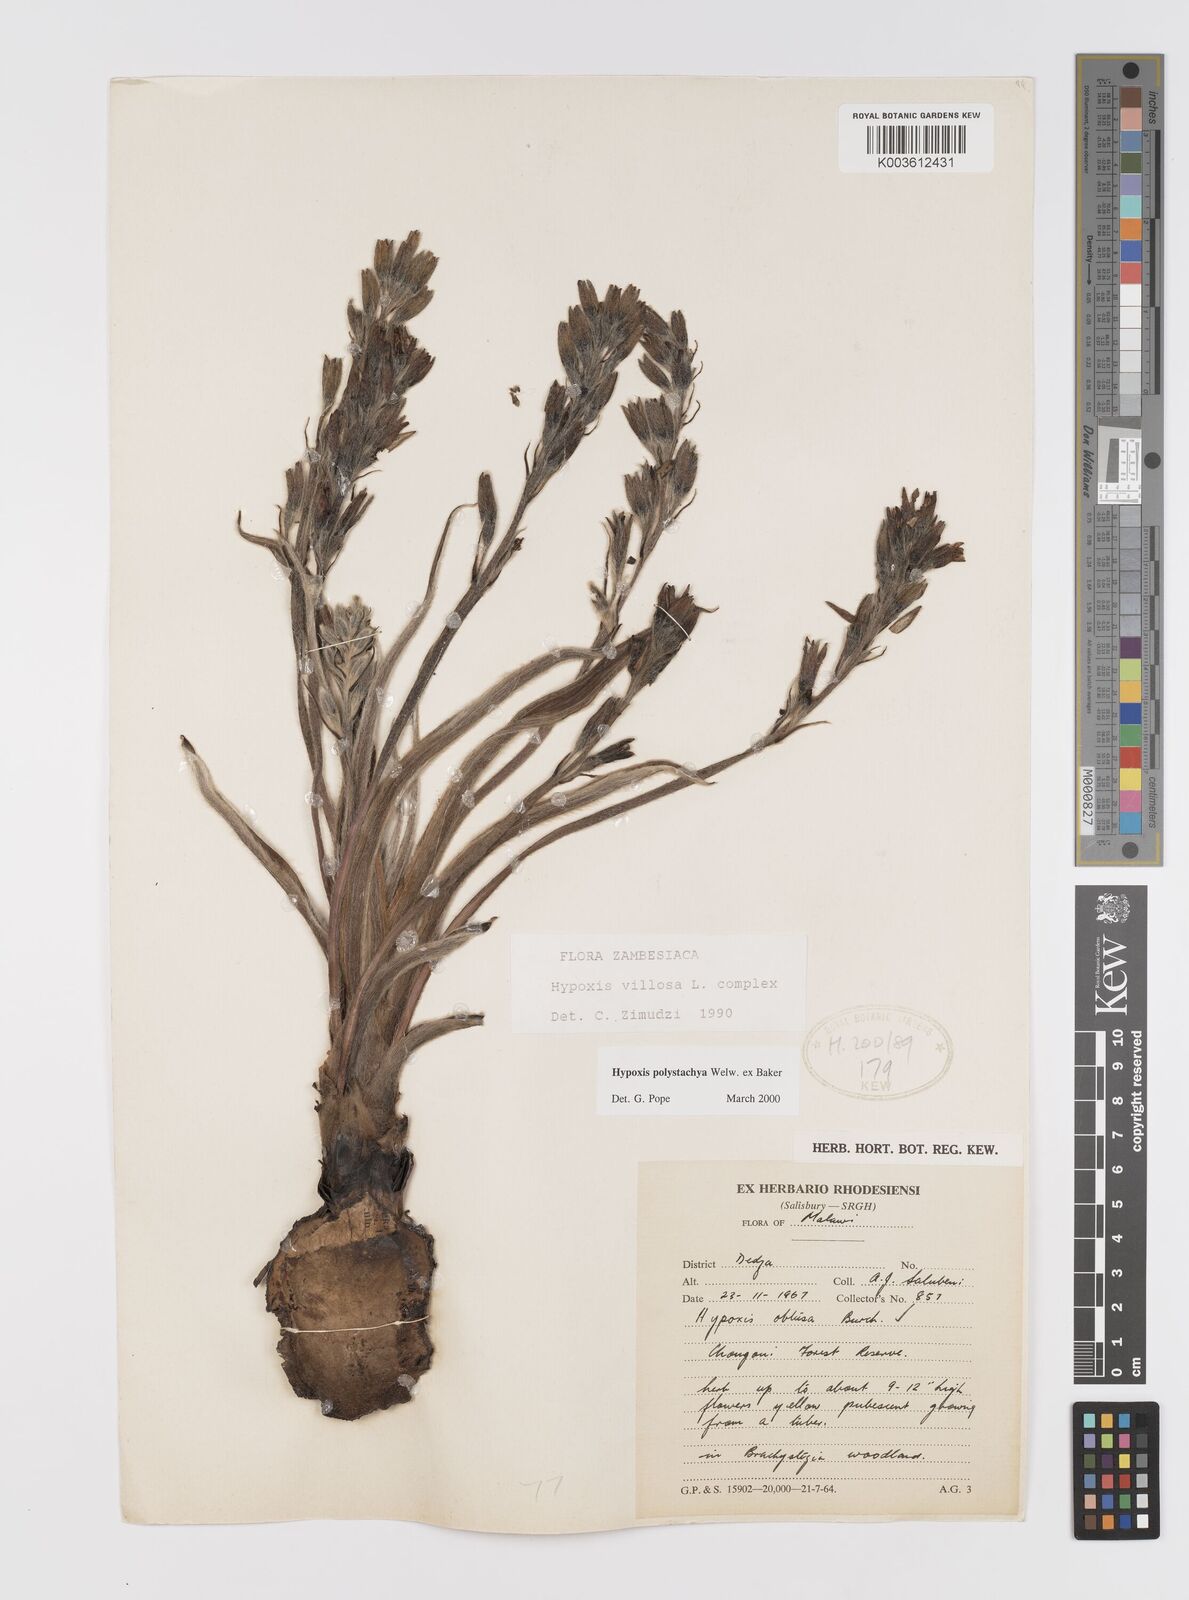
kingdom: Plantae
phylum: Tracheophyta
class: Liliopsida
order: Asparagales
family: Hypoxidaceae
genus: Hypoxis
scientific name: Hypoxis polystachya
